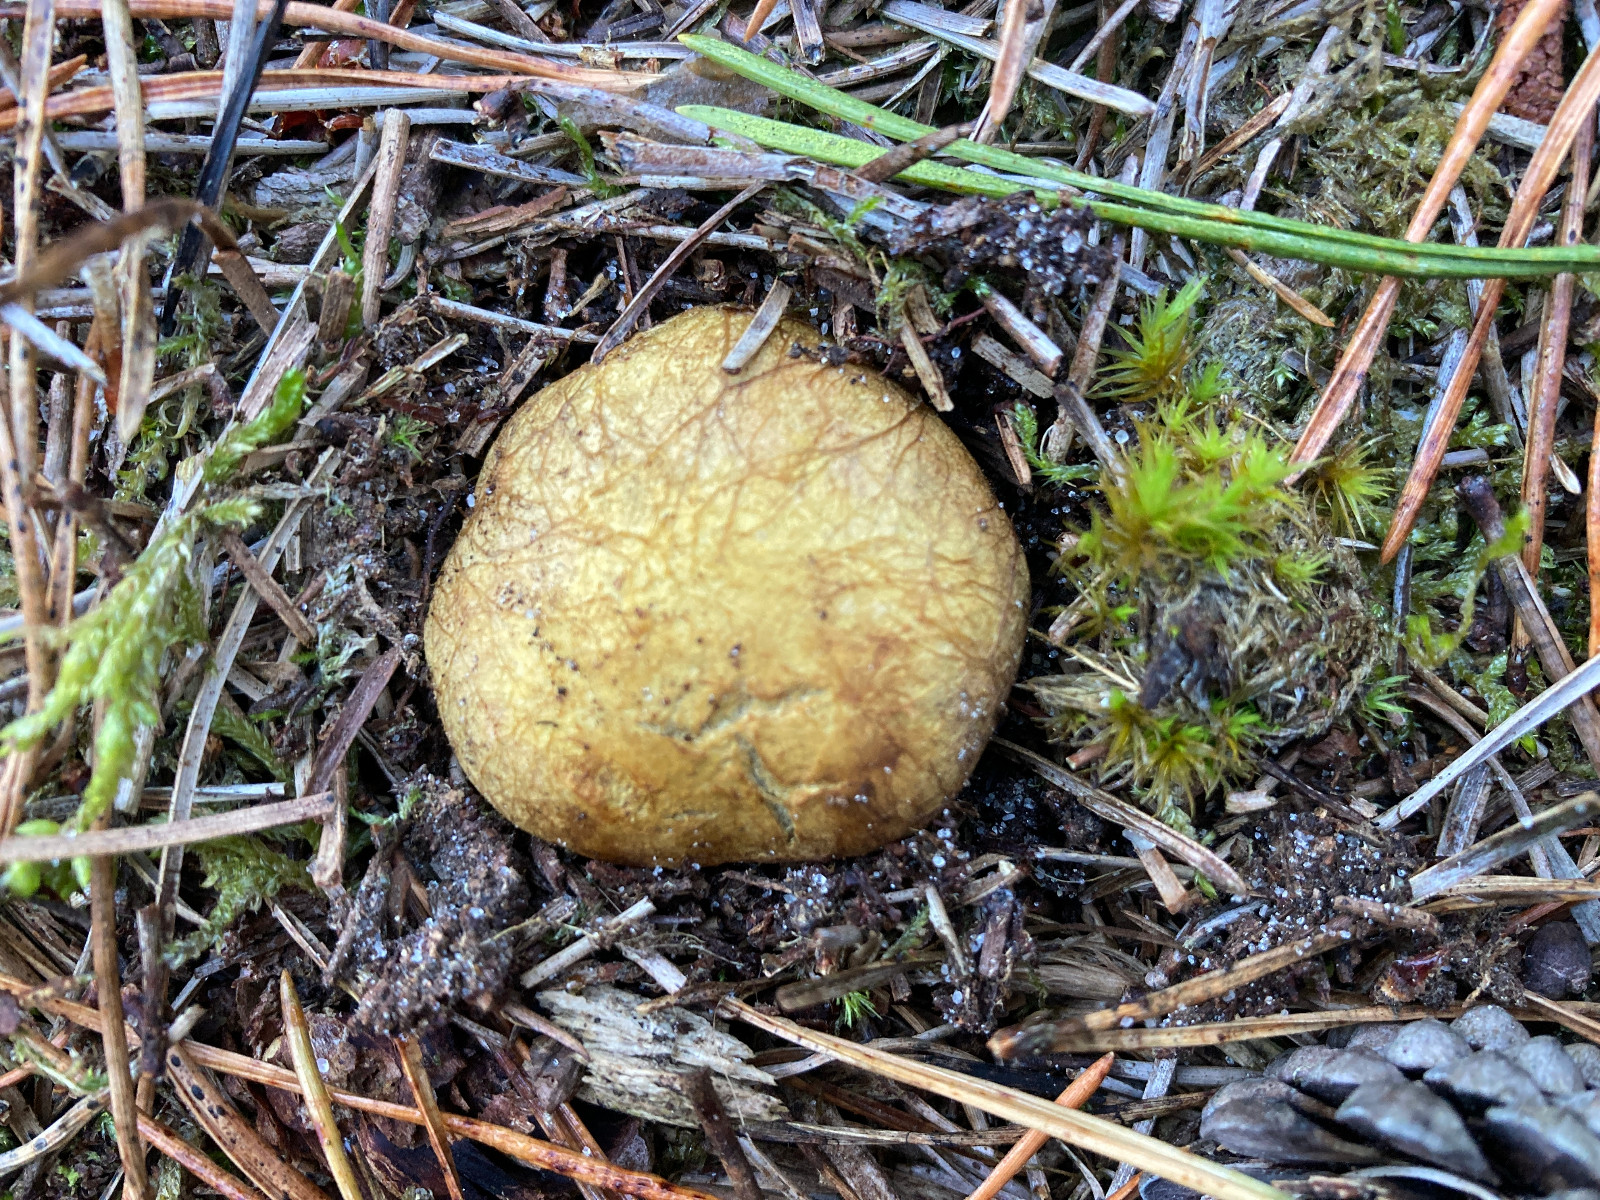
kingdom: Fungi
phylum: Basidiomycota
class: Agaricomycetes
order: Boletales
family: Rhizopogonaceae
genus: Rhizopogon
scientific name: Rhizopogon obtextus
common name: gul skægtrøffel
